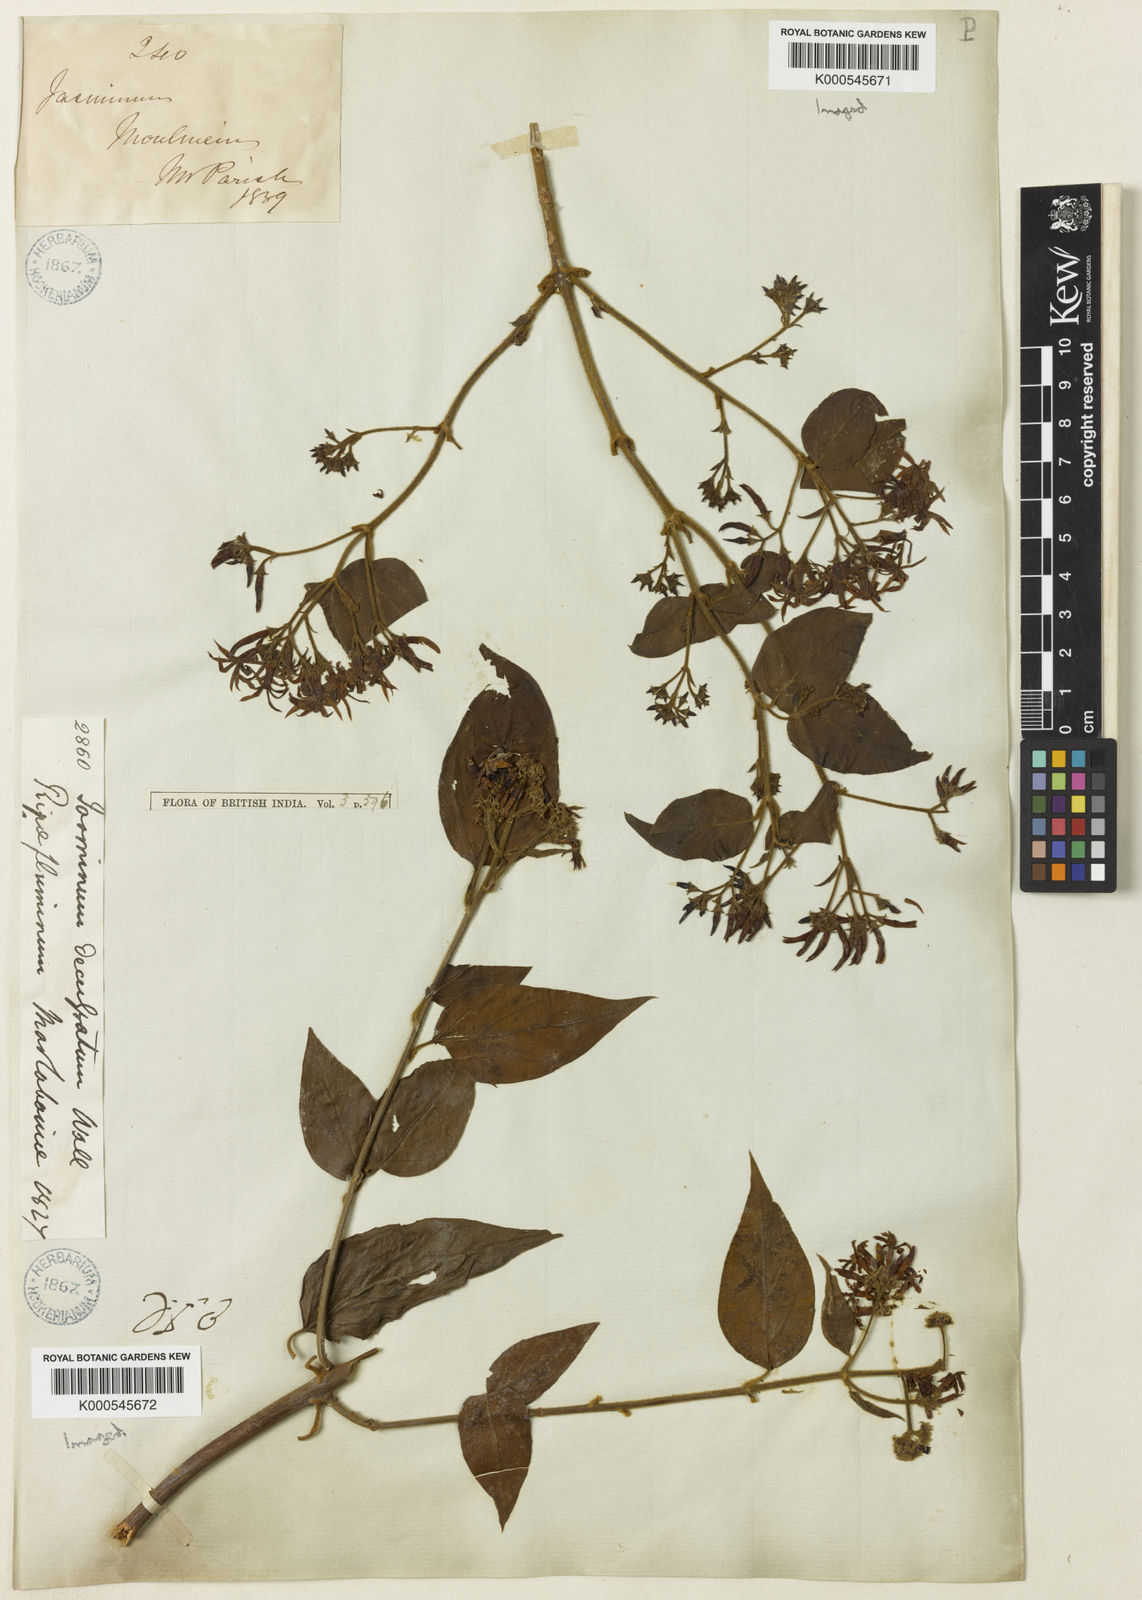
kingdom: Plantae
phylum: Tracheophyta
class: Magnoliopsida
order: Lamiales
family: Oleaceae
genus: Jasminum
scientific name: Jasminum scandens
